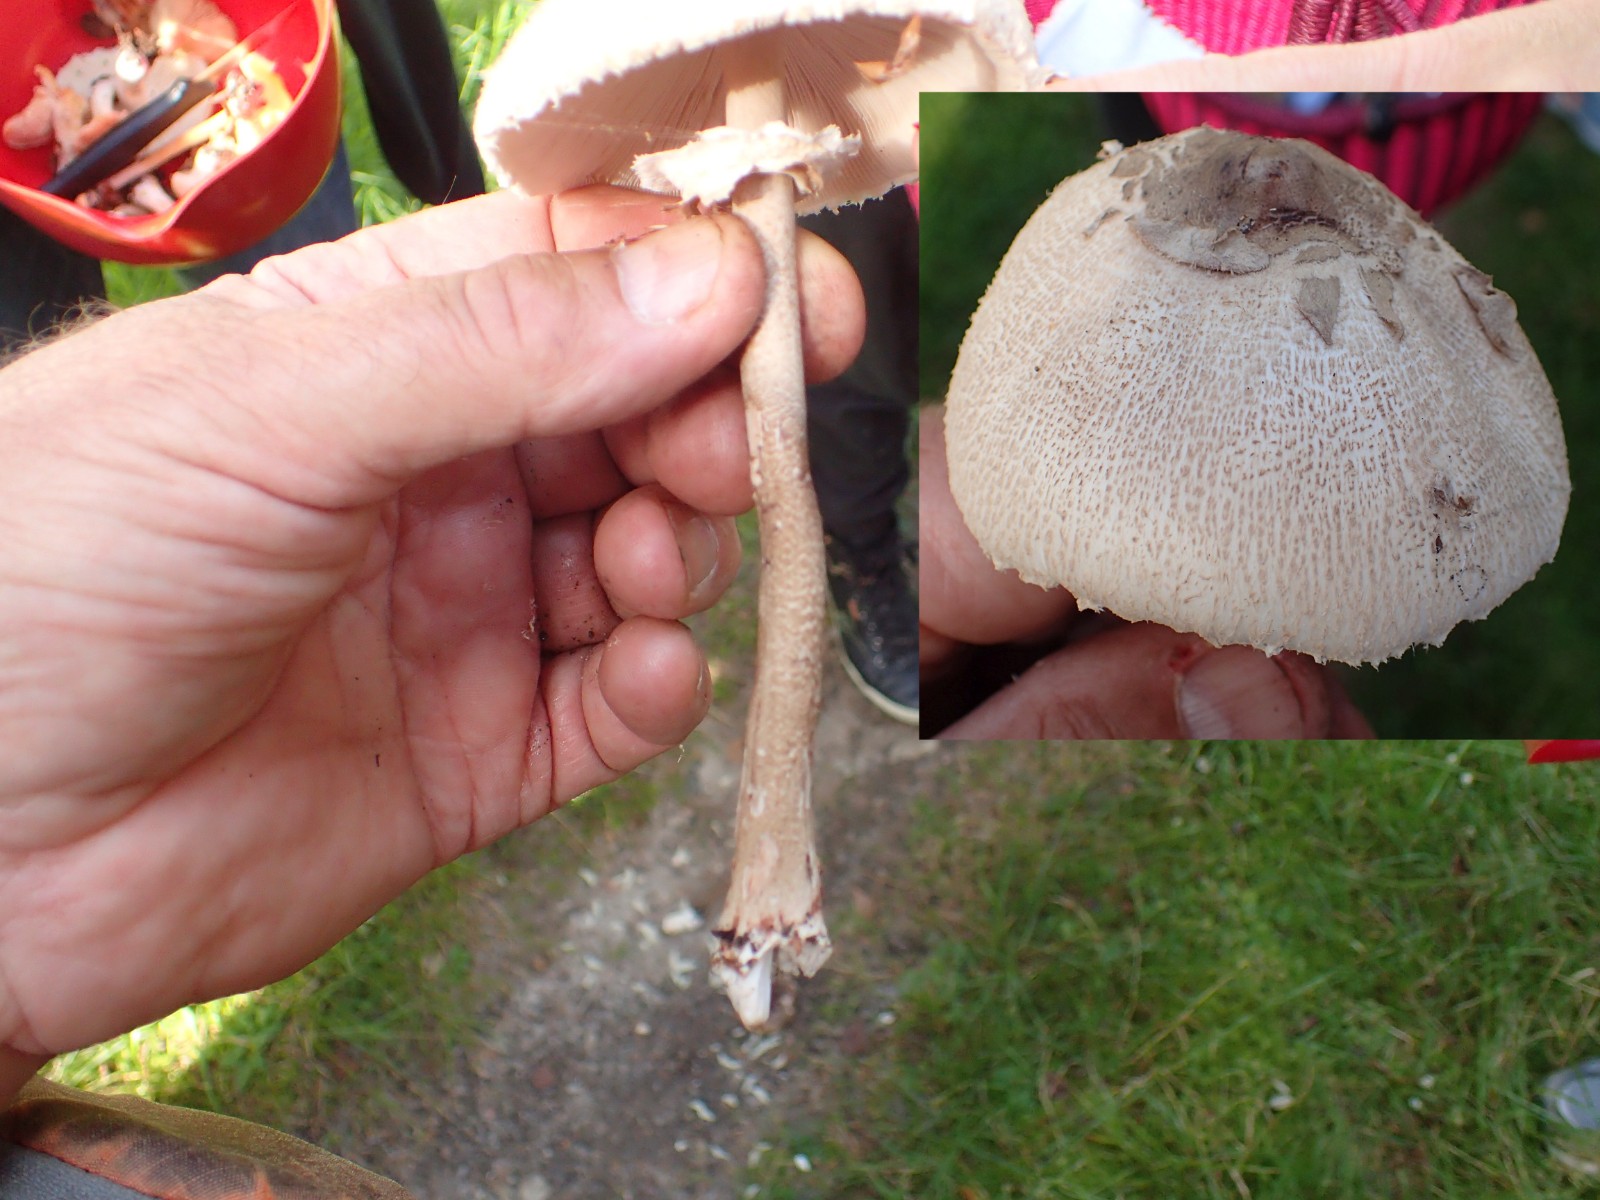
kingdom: Fungi
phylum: Basidiomycota
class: Agaricomycetes
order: Agaricales
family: Agaricaceae
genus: Macrolepiota
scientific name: Macrolepiota mastoidea
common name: puklet kæmpeparasolhat
